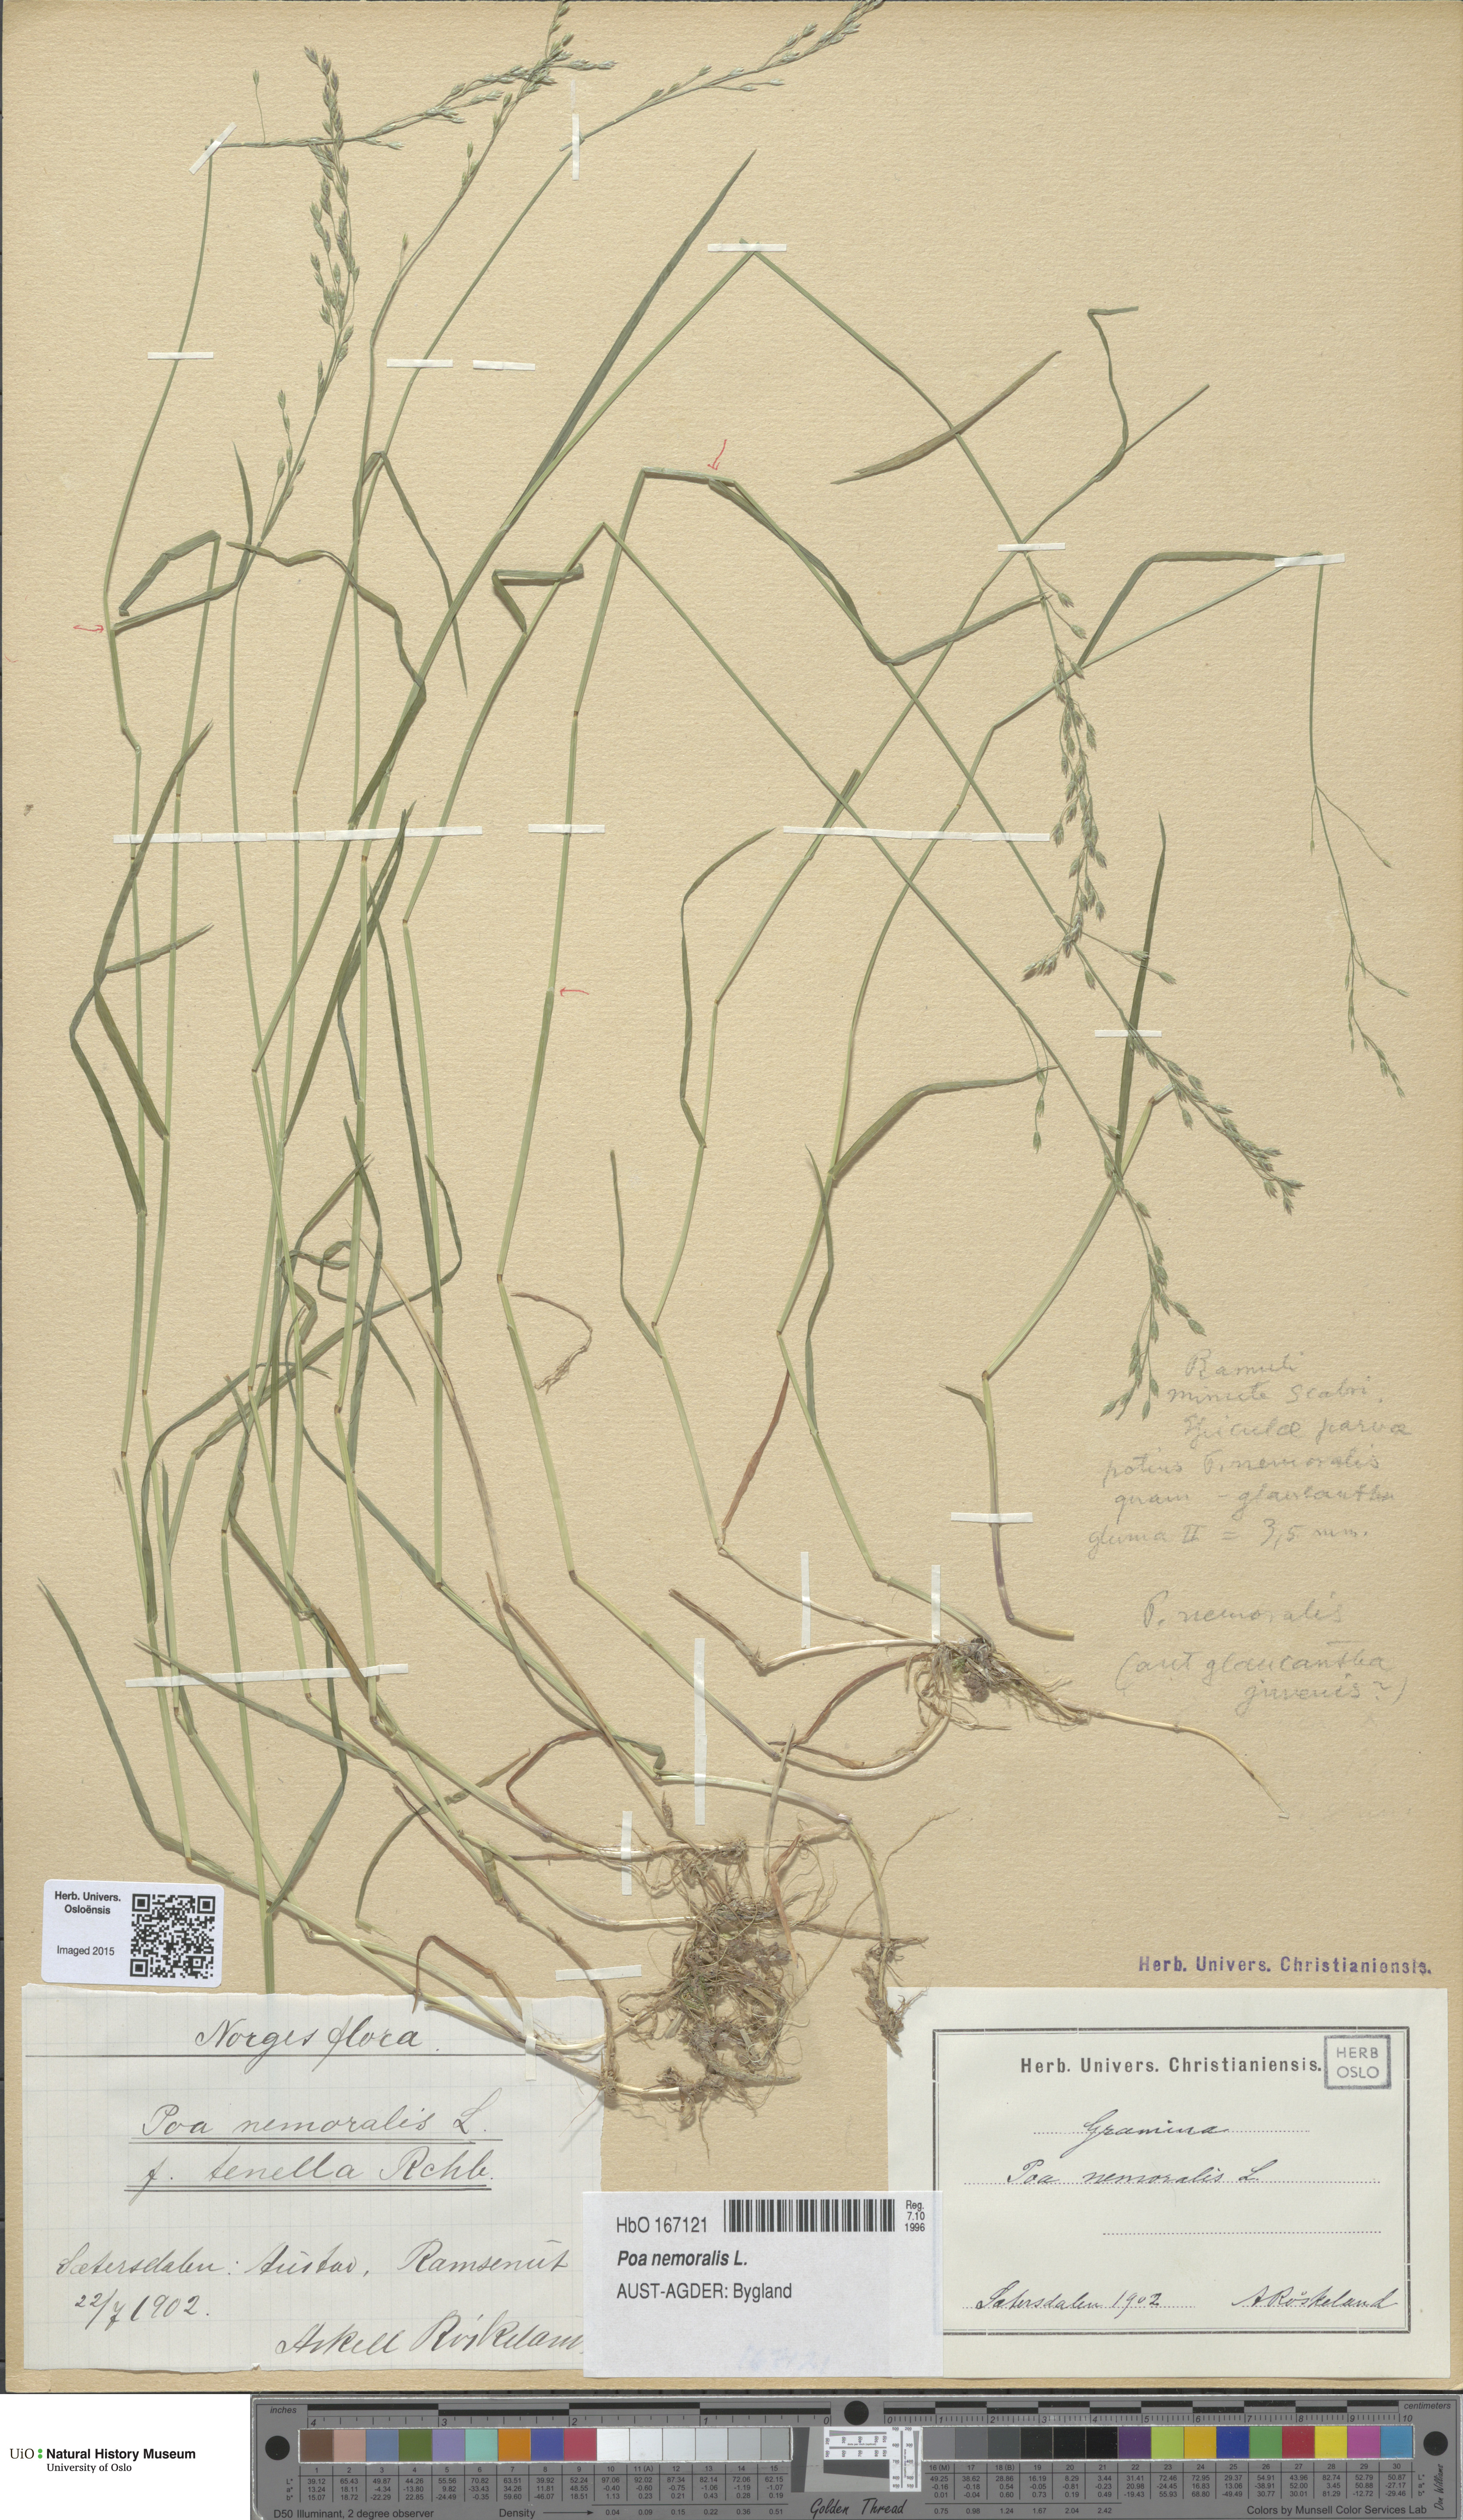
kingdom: Plantae
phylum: Tracheophyta
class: Liliopsida
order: Poales
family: Poaceae
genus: Poa
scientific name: Poa nemoralis
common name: Wood bluegrass
